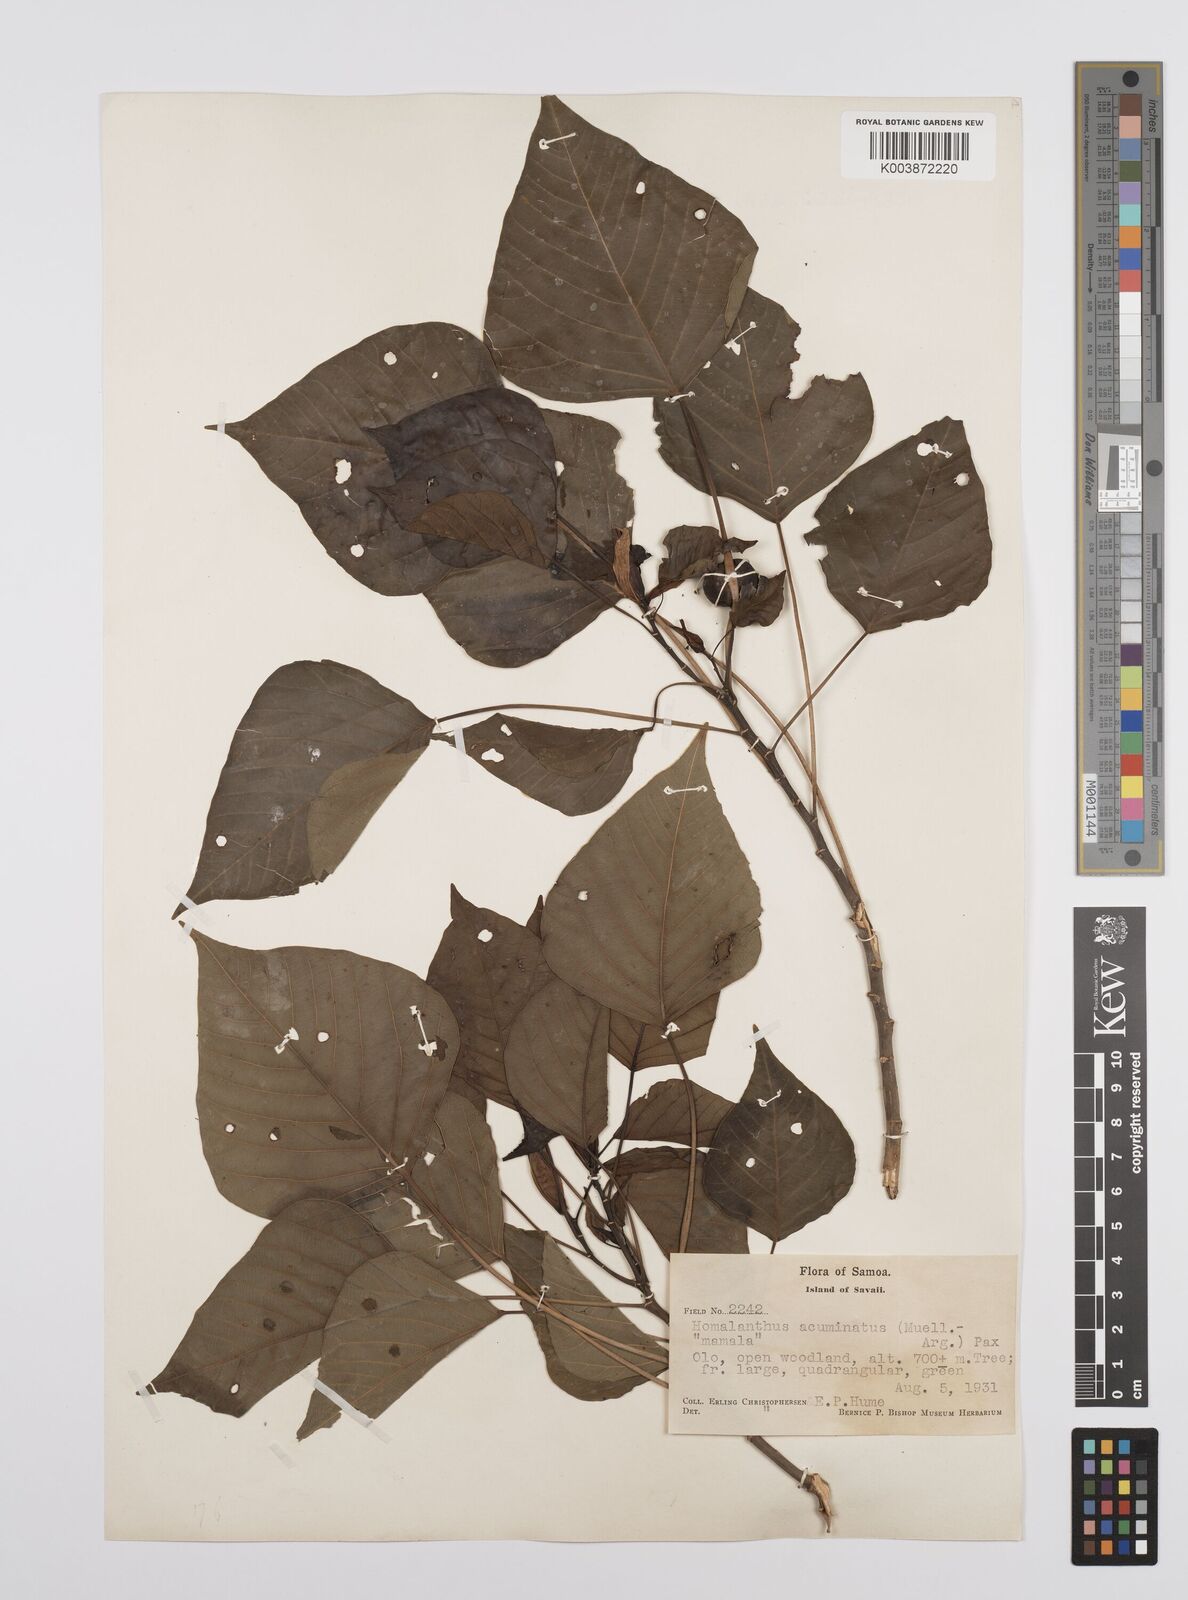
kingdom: Plantae
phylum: Tracheophyta
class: Magnoliopsida
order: Malpighiales
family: Euphorbiaceae
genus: Homalanthus
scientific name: Homalanthus acuminatus
